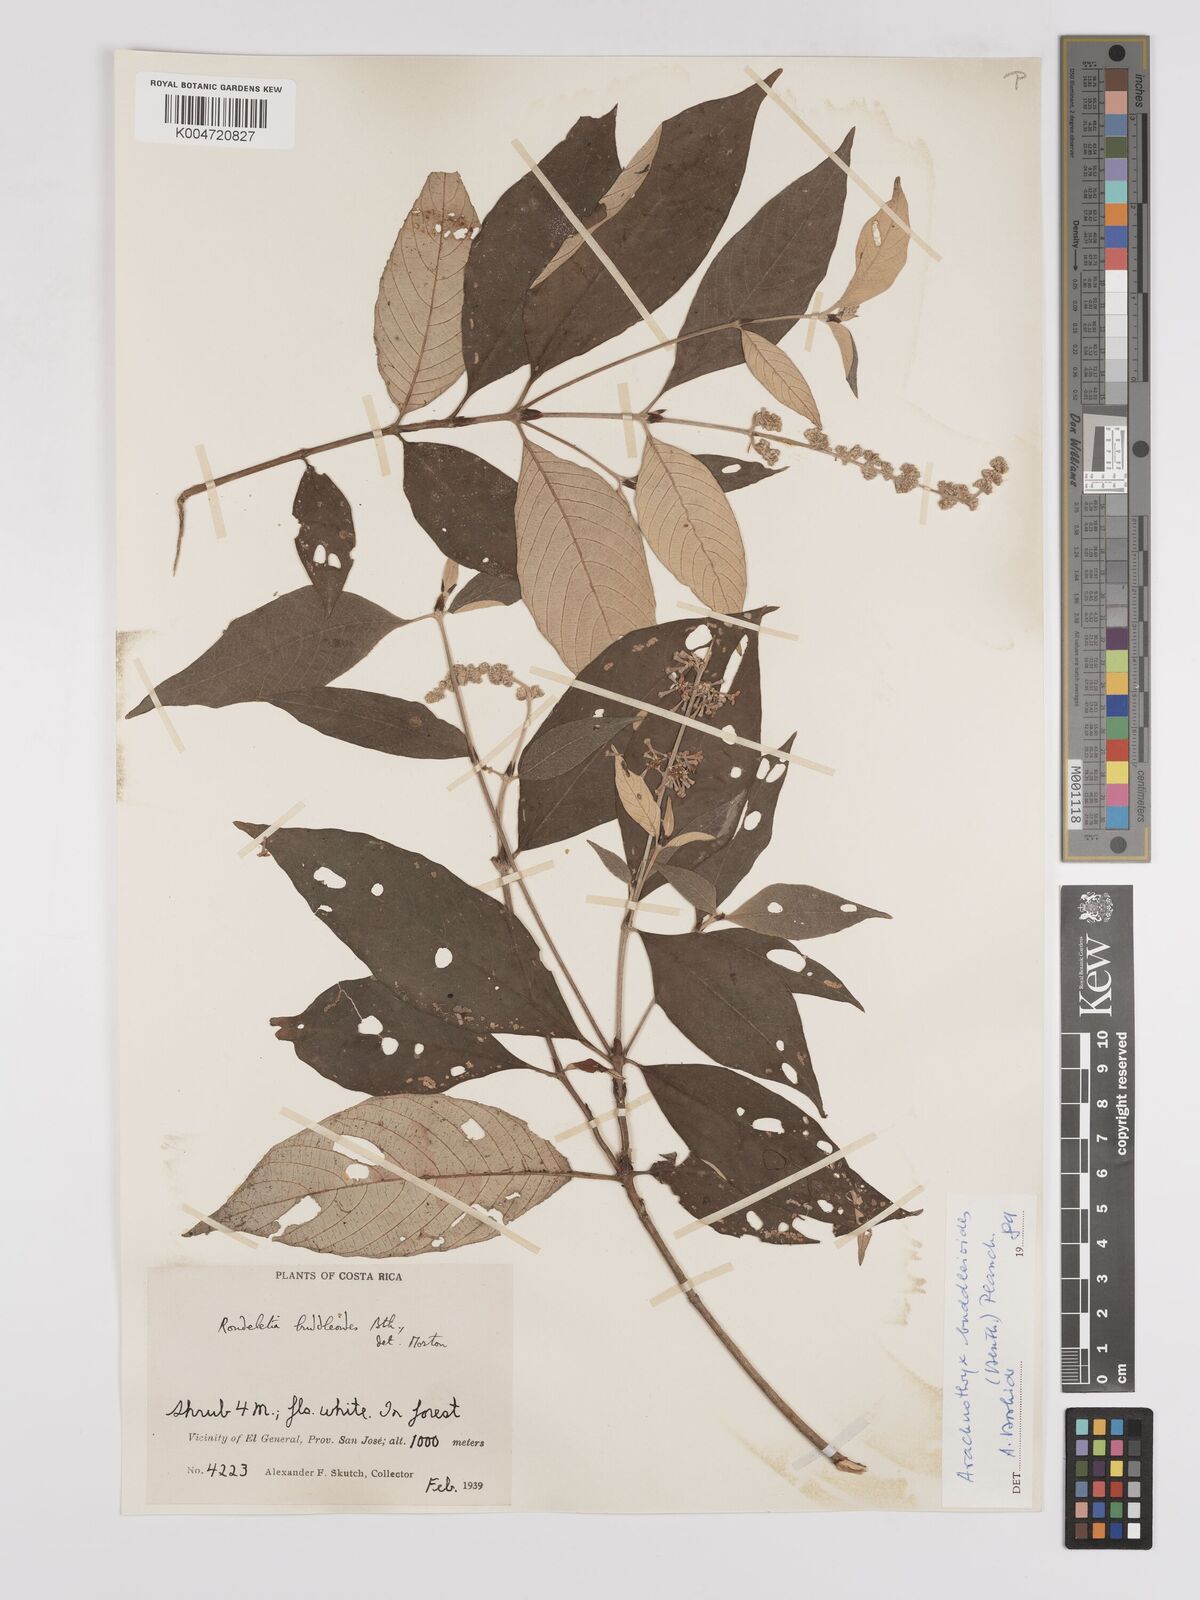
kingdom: Plantae
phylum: Tracheophyta
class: Magnoliopsida
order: Gentianales
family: Rubiaceae
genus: Arachnothryx
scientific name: Arachnothryx buddleioides
